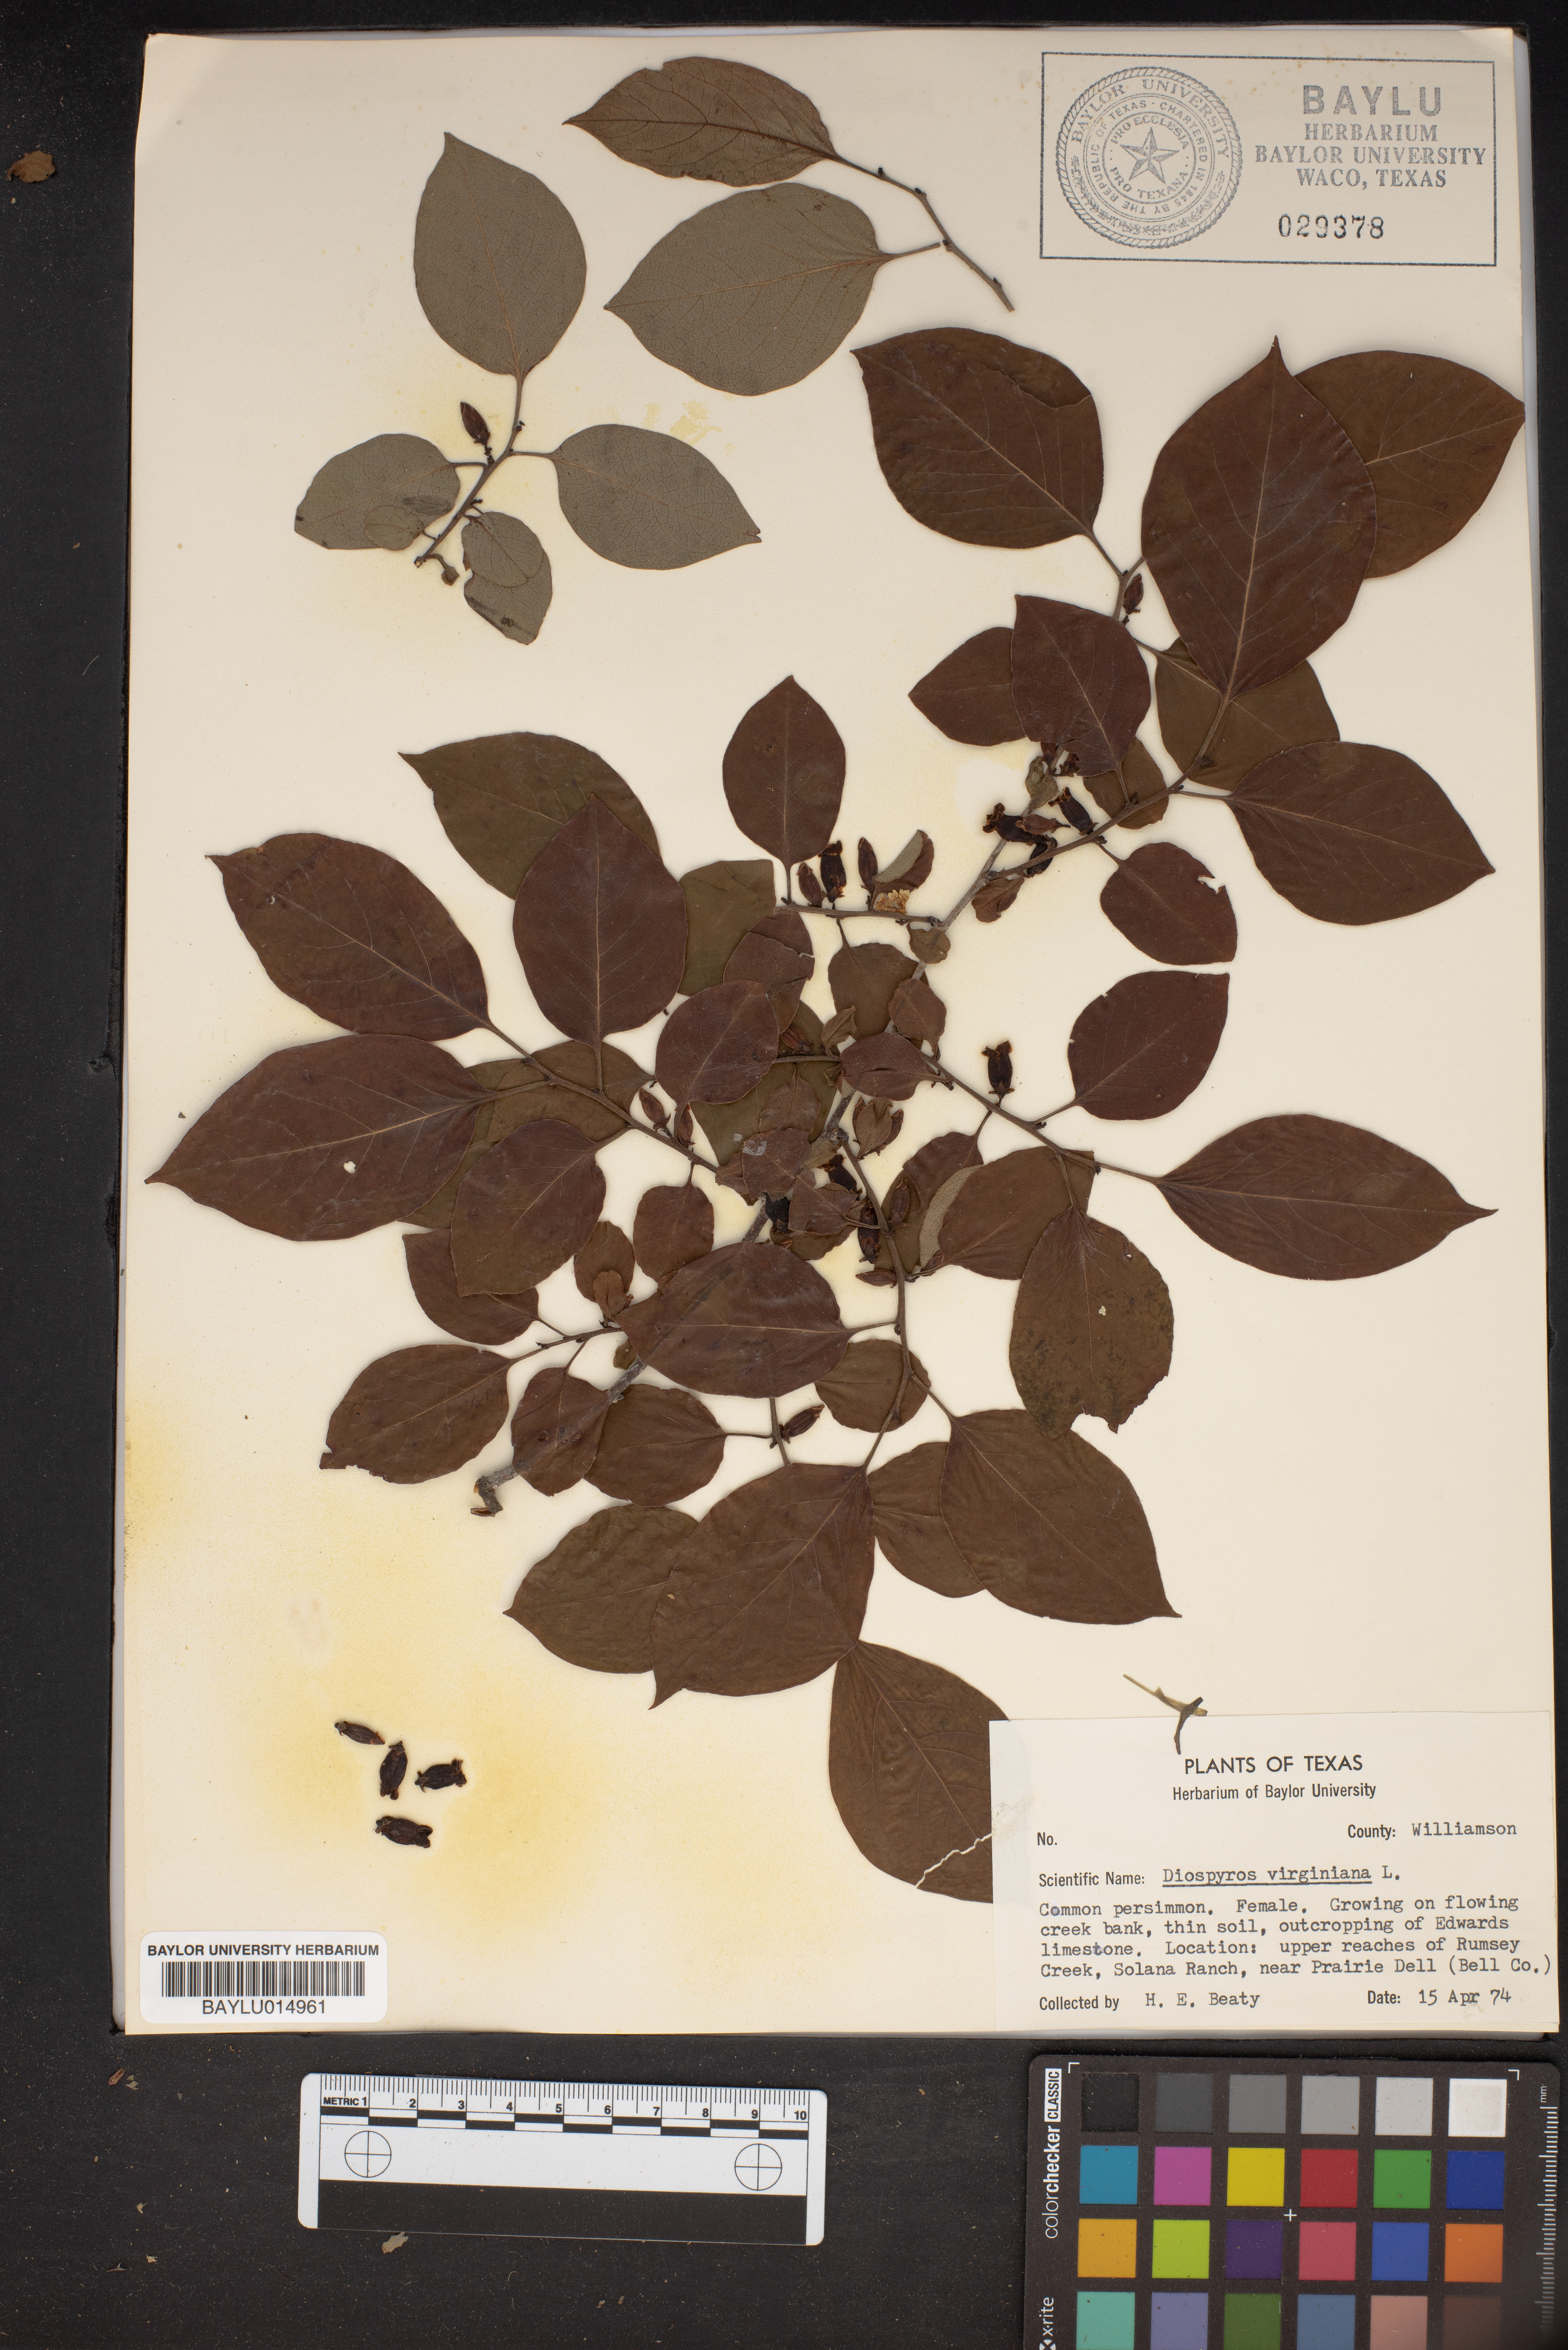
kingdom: Plantae
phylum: Tracheophyta
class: Magnoliopsida
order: Ericales
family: Ebenaceae
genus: Diospyros
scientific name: Diospyros virginiana
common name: Persimmon
